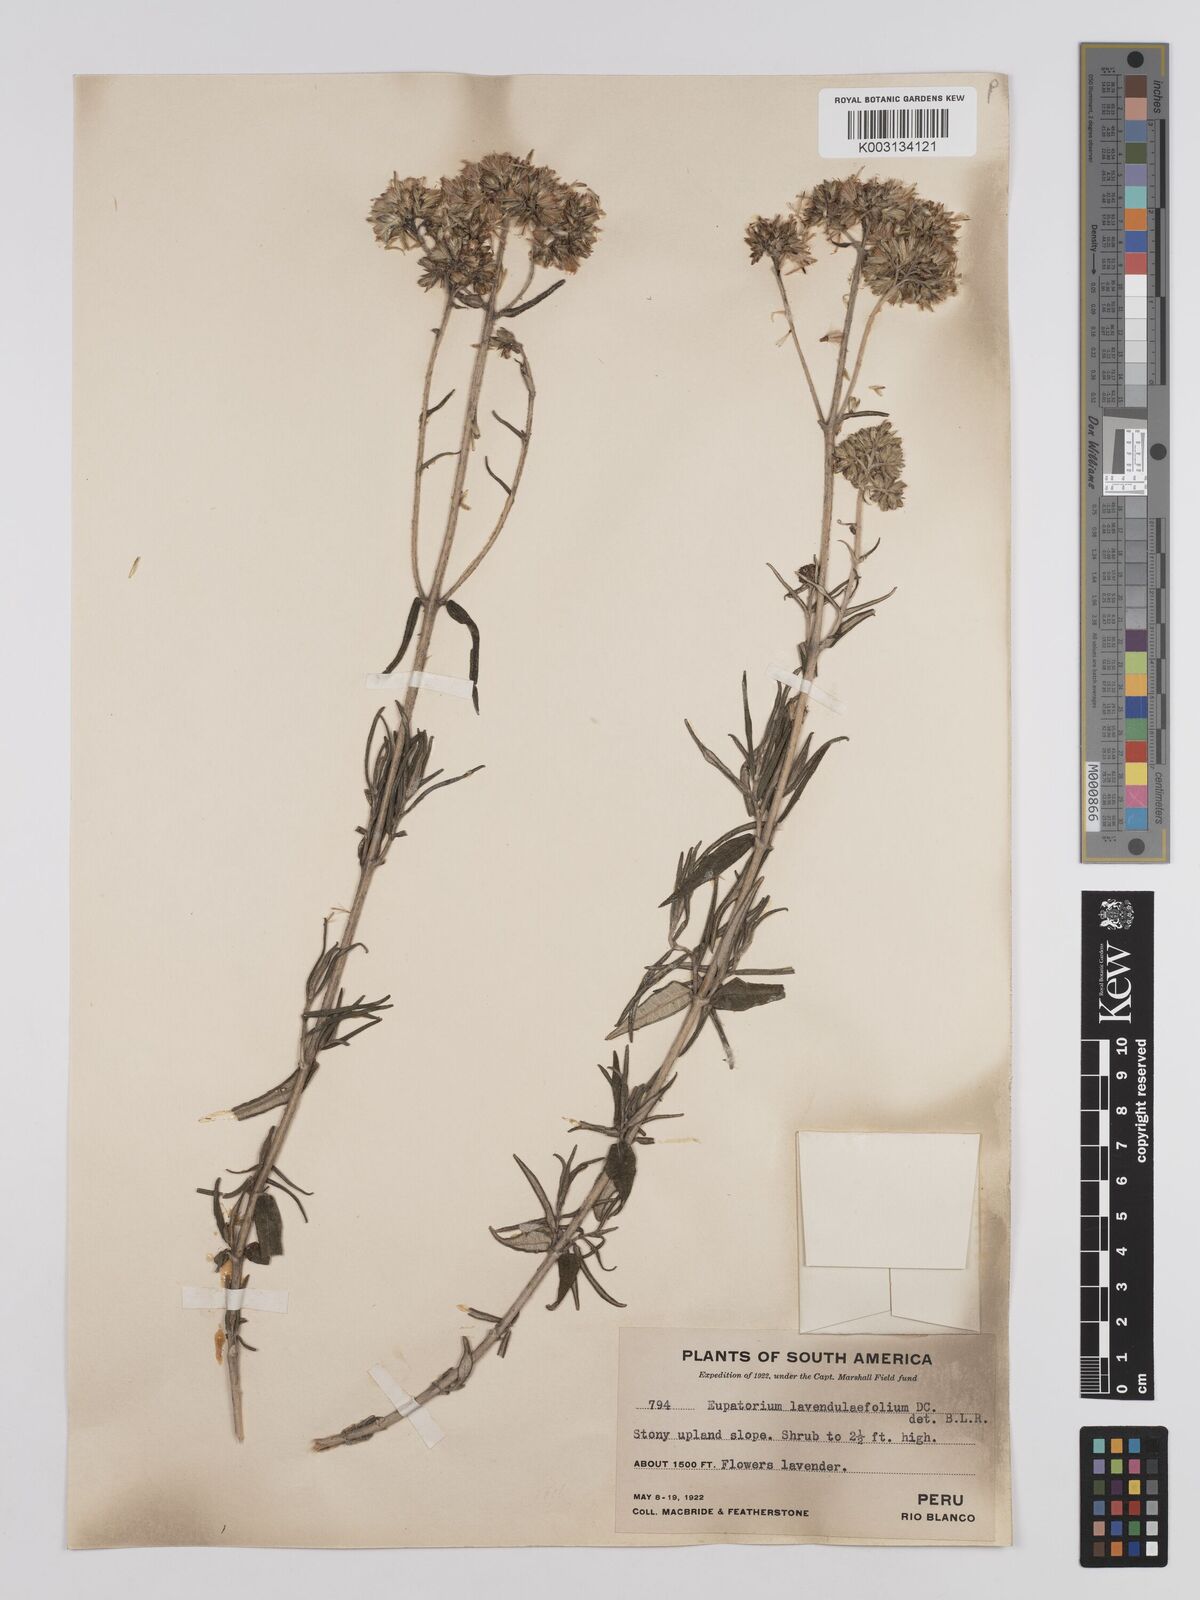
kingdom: Plantae
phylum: Tracheophyta
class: Magnoliopsida
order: Asterales
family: Asteraceae
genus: Cronquistianthus
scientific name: Cronquistianthus lavandulifolius
